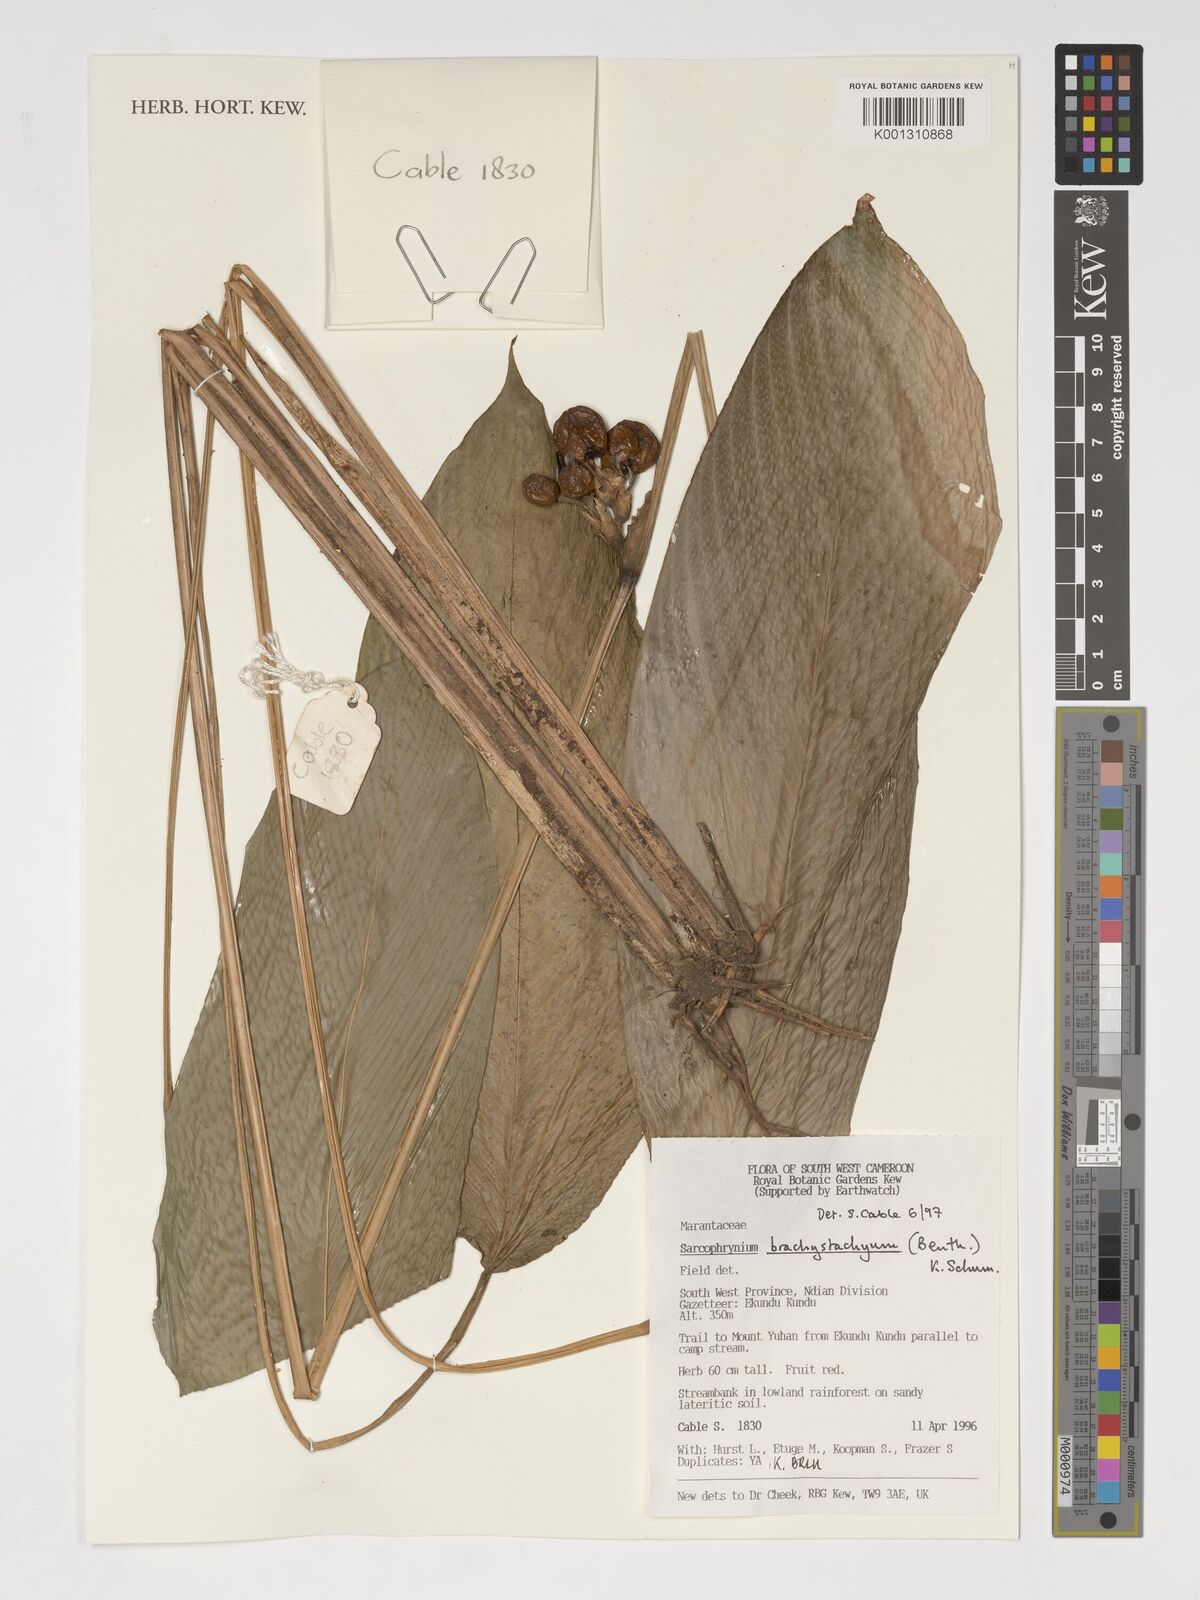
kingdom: Plantae
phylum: Tracheophyta
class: Liliopsida
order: Zingiberales
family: Marantaceae
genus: Sarcophrynium
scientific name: Sarcophrynium brachystachyum
